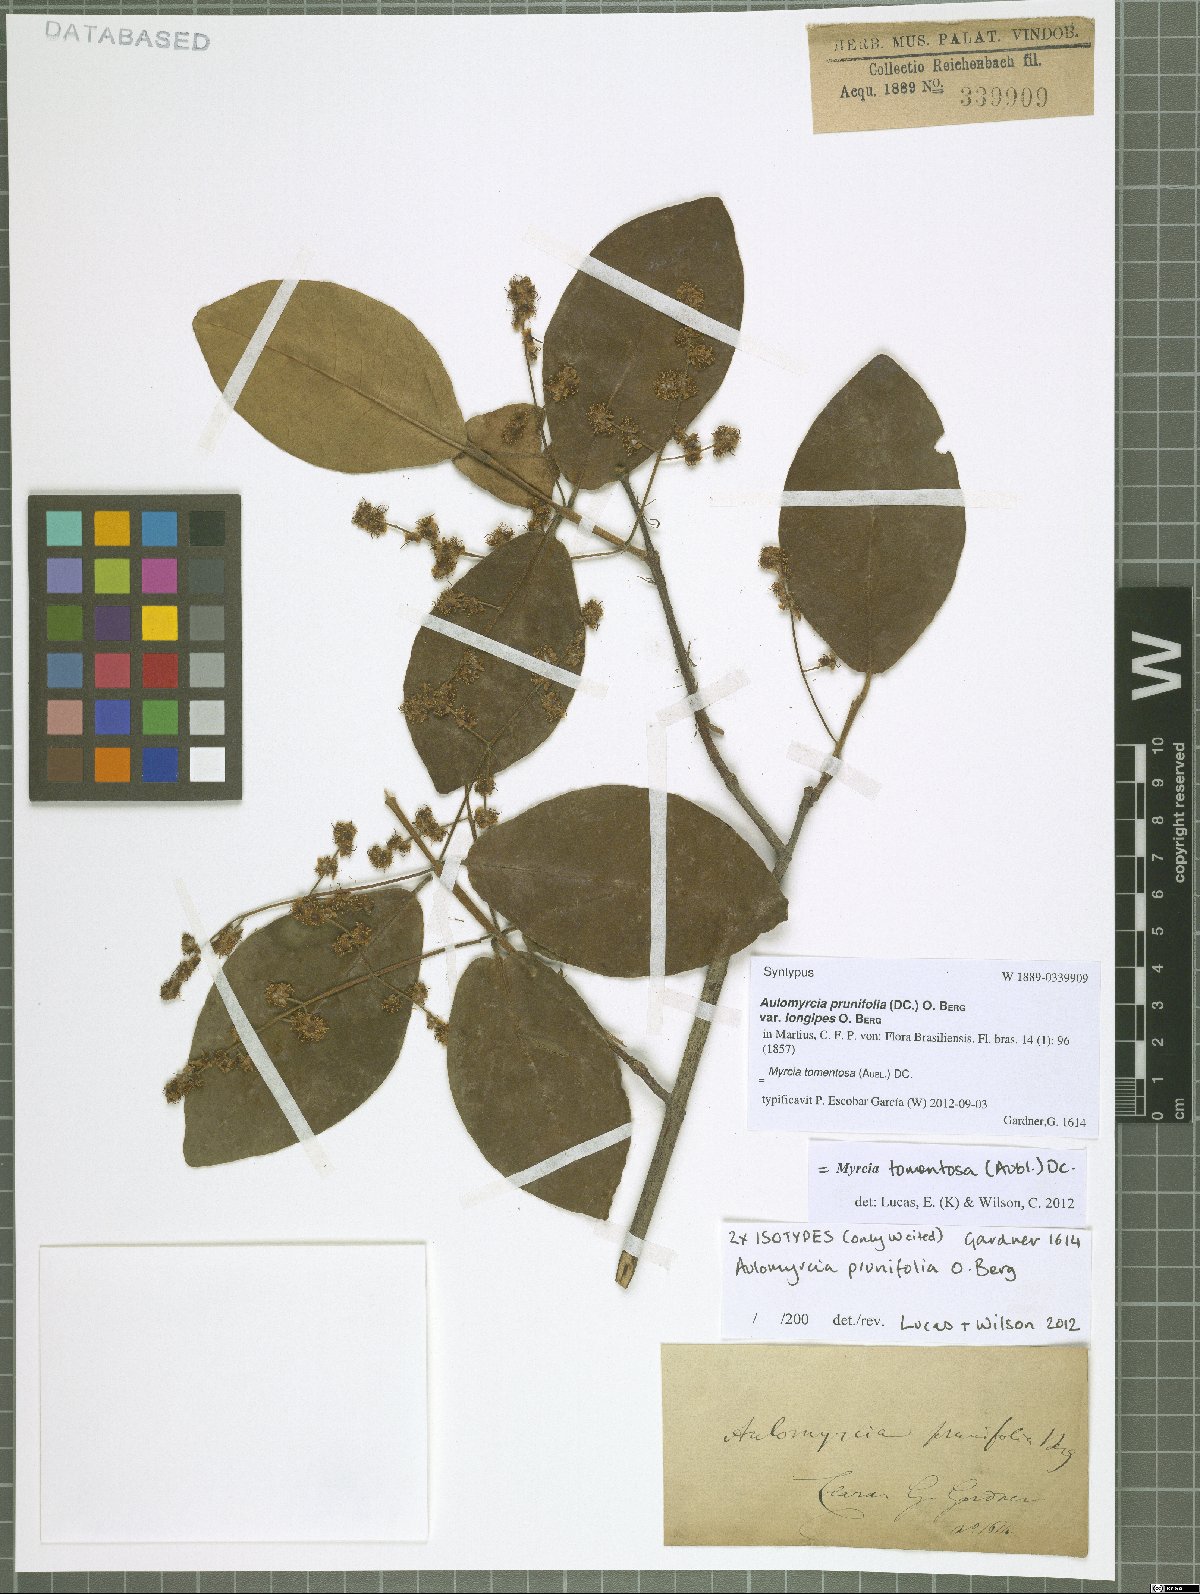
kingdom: Plantae
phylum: Tracheophyta
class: Magnoliopsida
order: Myrtales
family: Myrtaceae
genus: Myrcia
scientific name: Myrcia tomentosa
